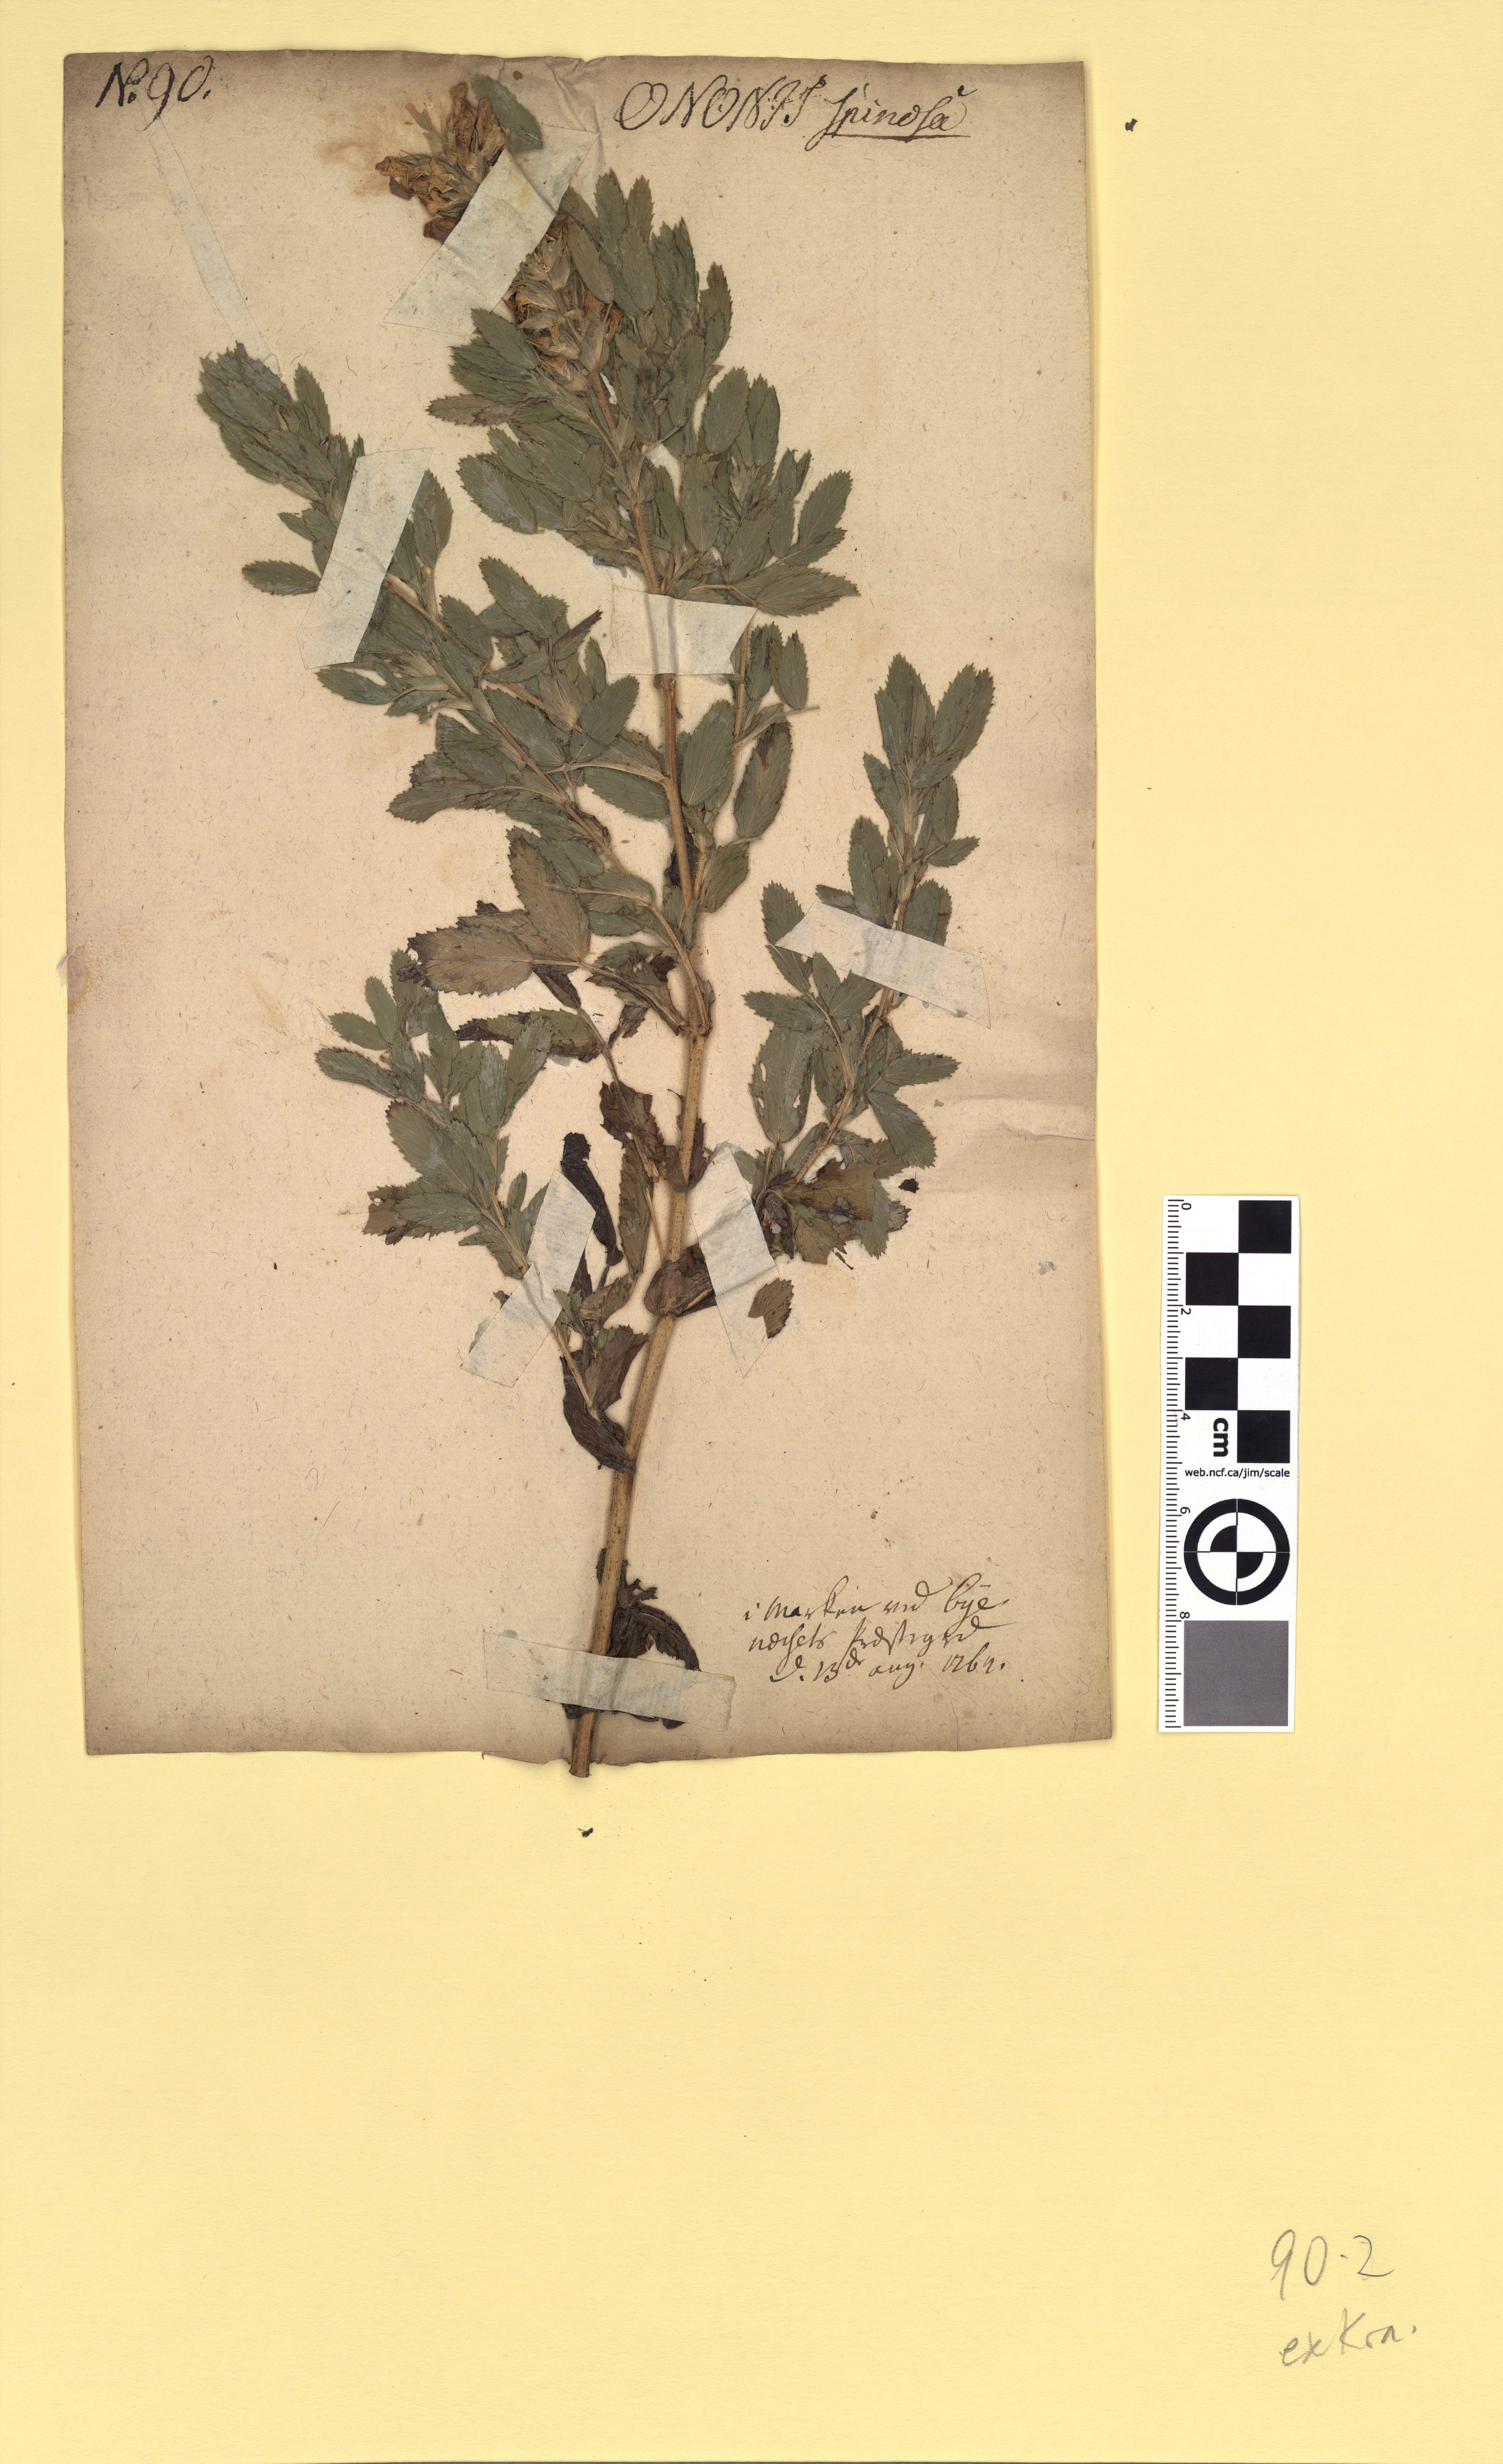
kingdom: Plantae
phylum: Tracheophyta
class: Magnoliopsida
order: Fabales
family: Fabaceae
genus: Ononis
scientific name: Ononis arvensis
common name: Field restharrow
